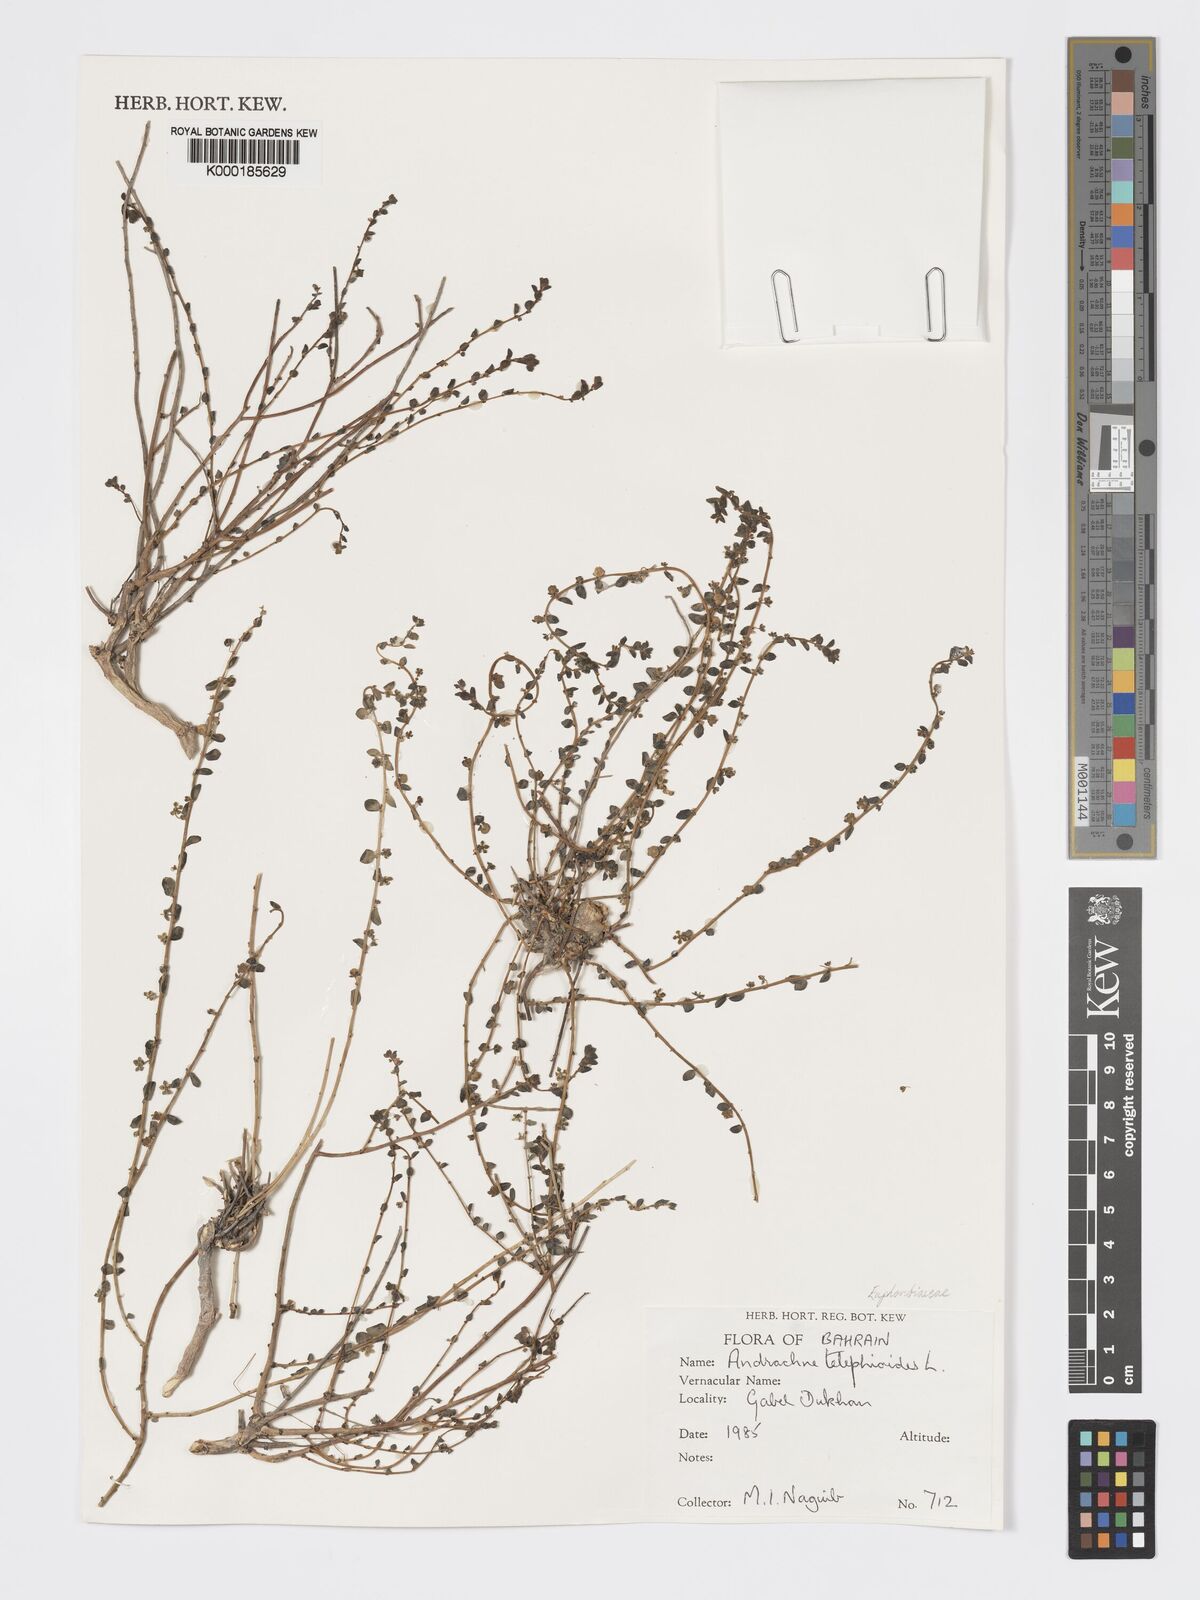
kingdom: Plantae
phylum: Tracheophyta
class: Magnoliopsida
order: Malpighiales
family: Phyllanthaceae
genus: Andrachne
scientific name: Andrachne telephioides
